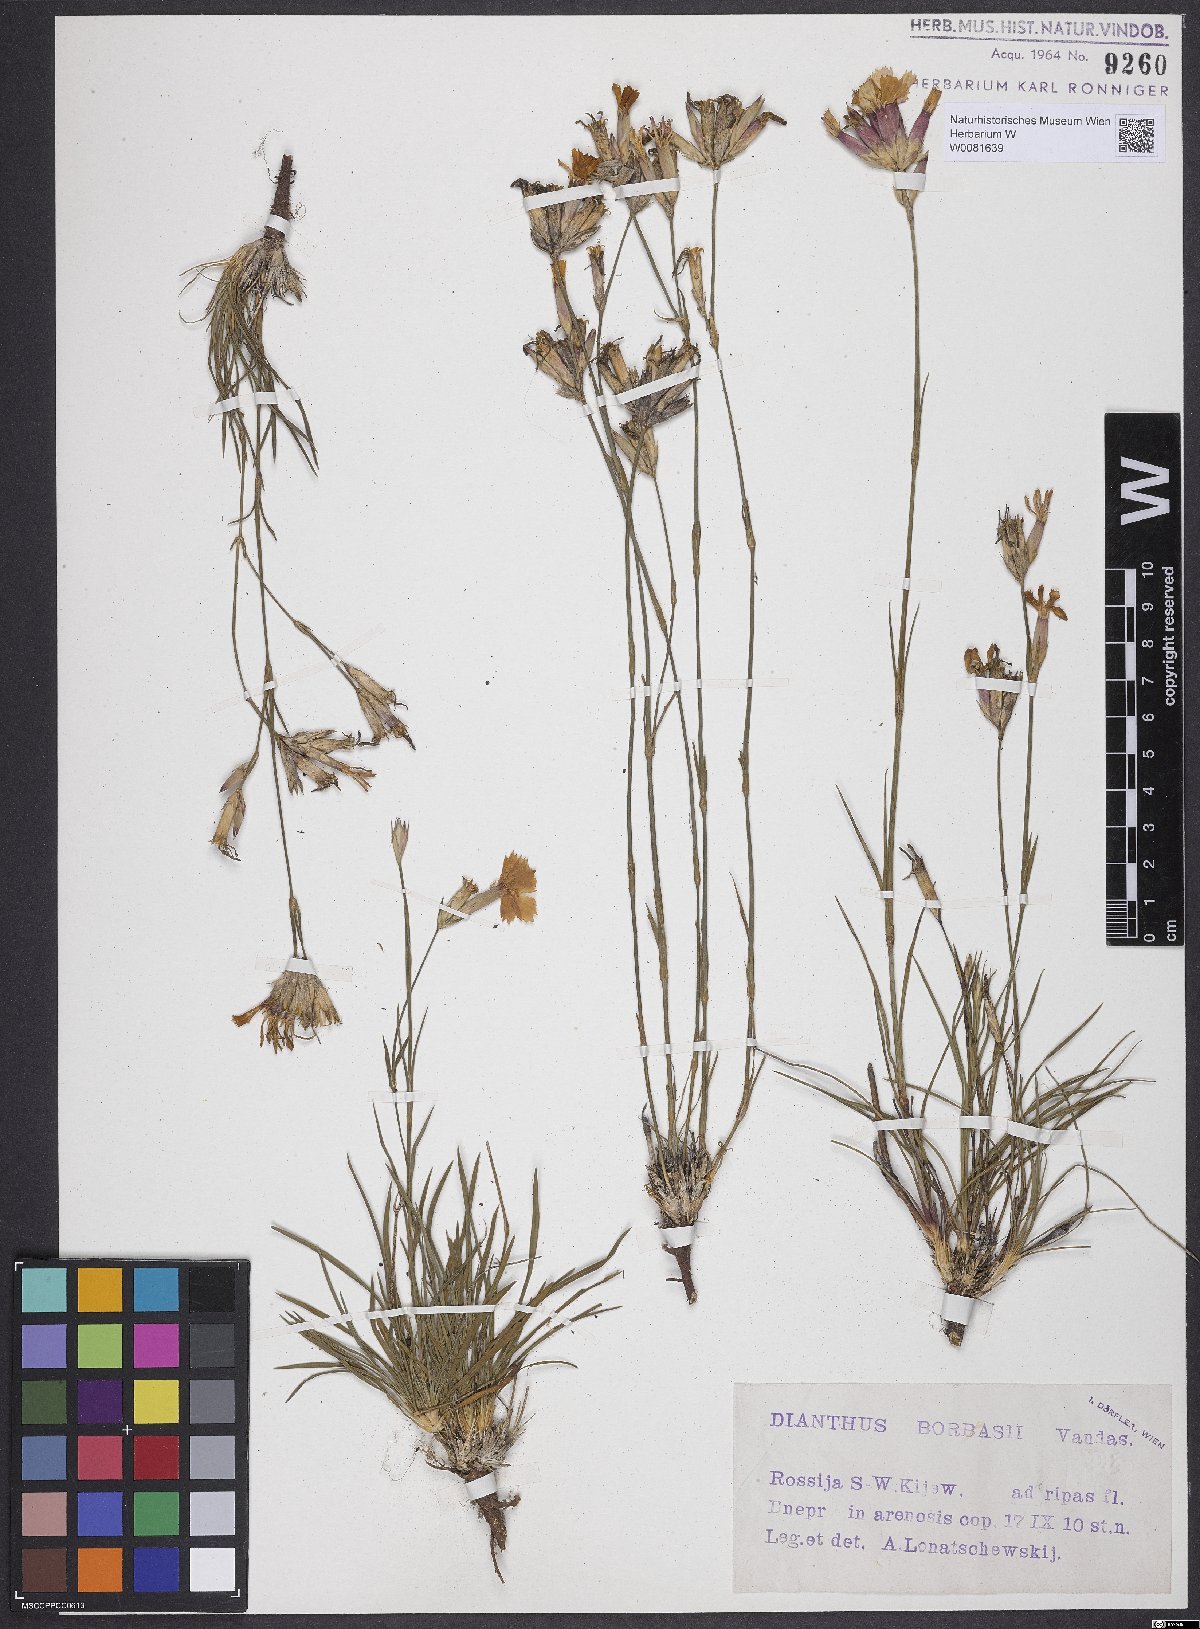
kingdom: Plantae
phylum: Tracheophyta
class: Magnoliopsida
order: Caryophyllales
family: Caryophyllaceae
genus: Dianthus
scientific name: Dianthus borbasii
